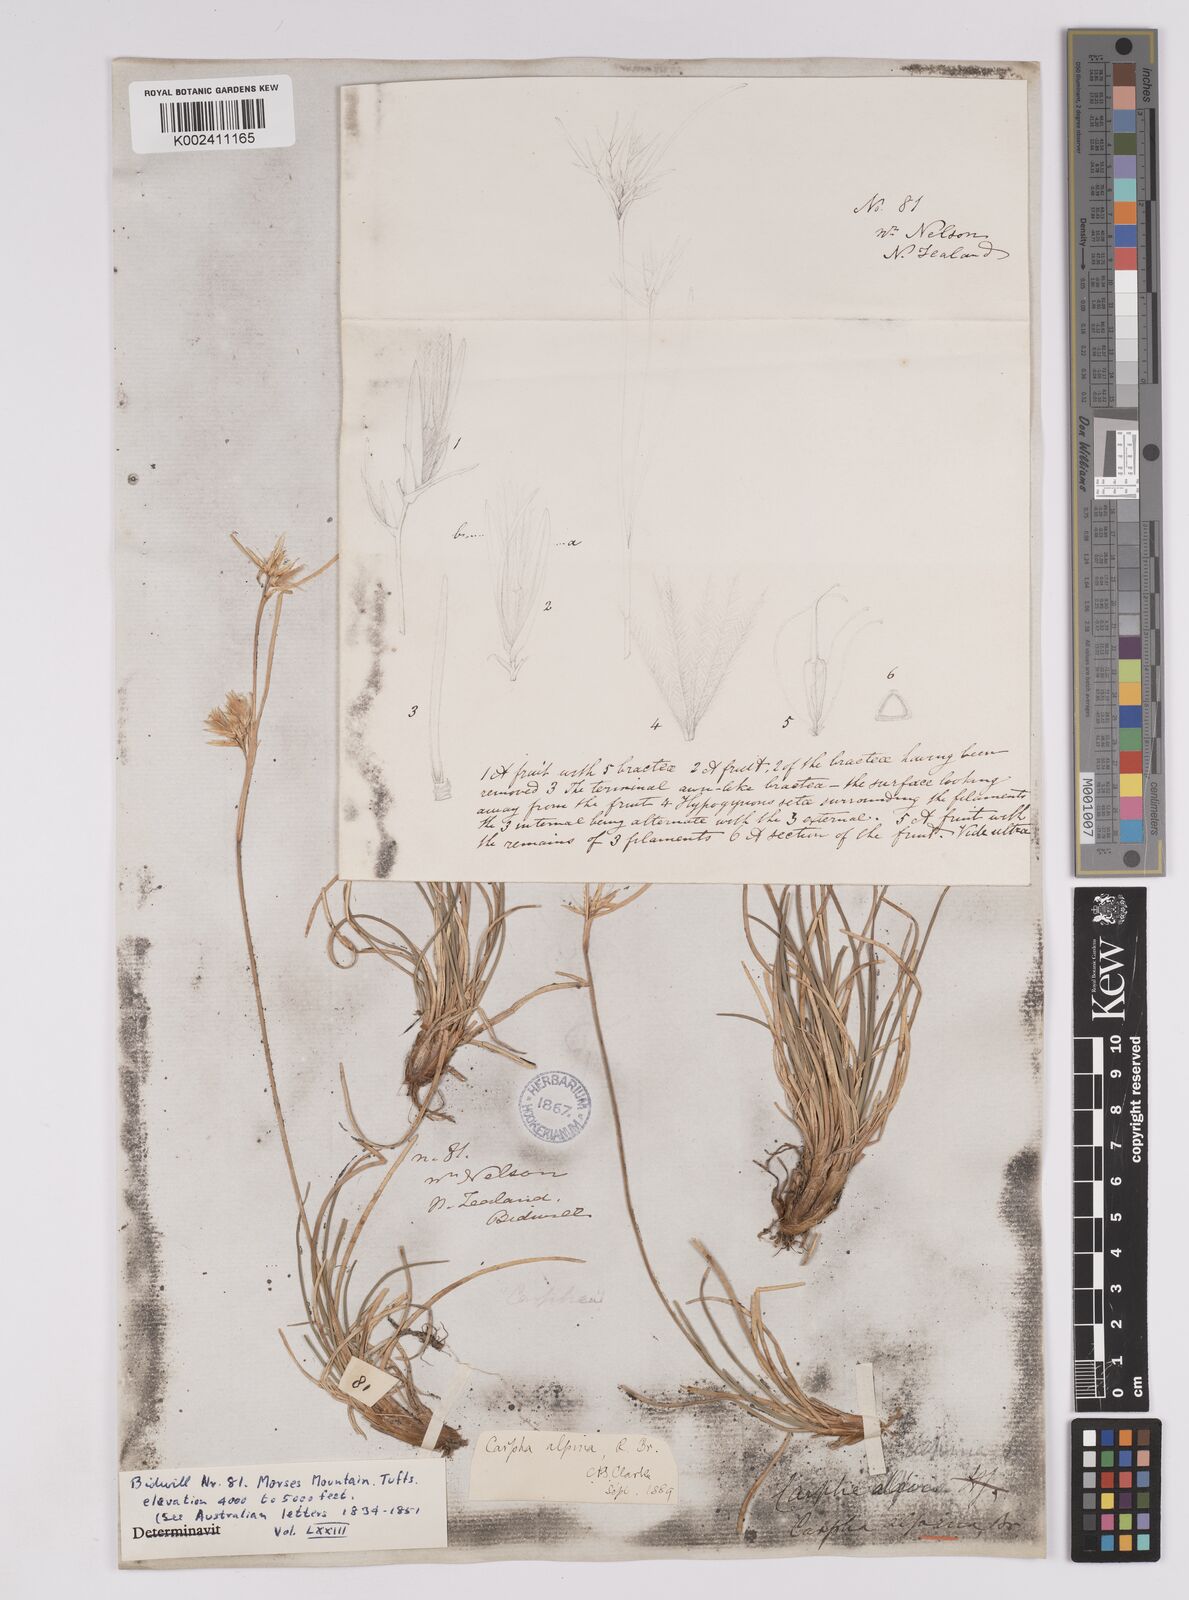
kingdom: Plantae
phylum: Tracheophyta
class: Liliopsida
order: Poales
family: Cyperaceae
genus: Carpha
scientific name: Carpha alpina
